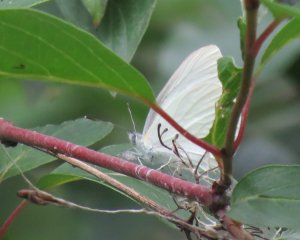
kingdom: Animalia
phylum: Arthropoda
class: Insecta
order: Lepidoptera
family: Pieridae
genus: Pieris
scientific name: Pieris oleracea
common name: Mustard White
